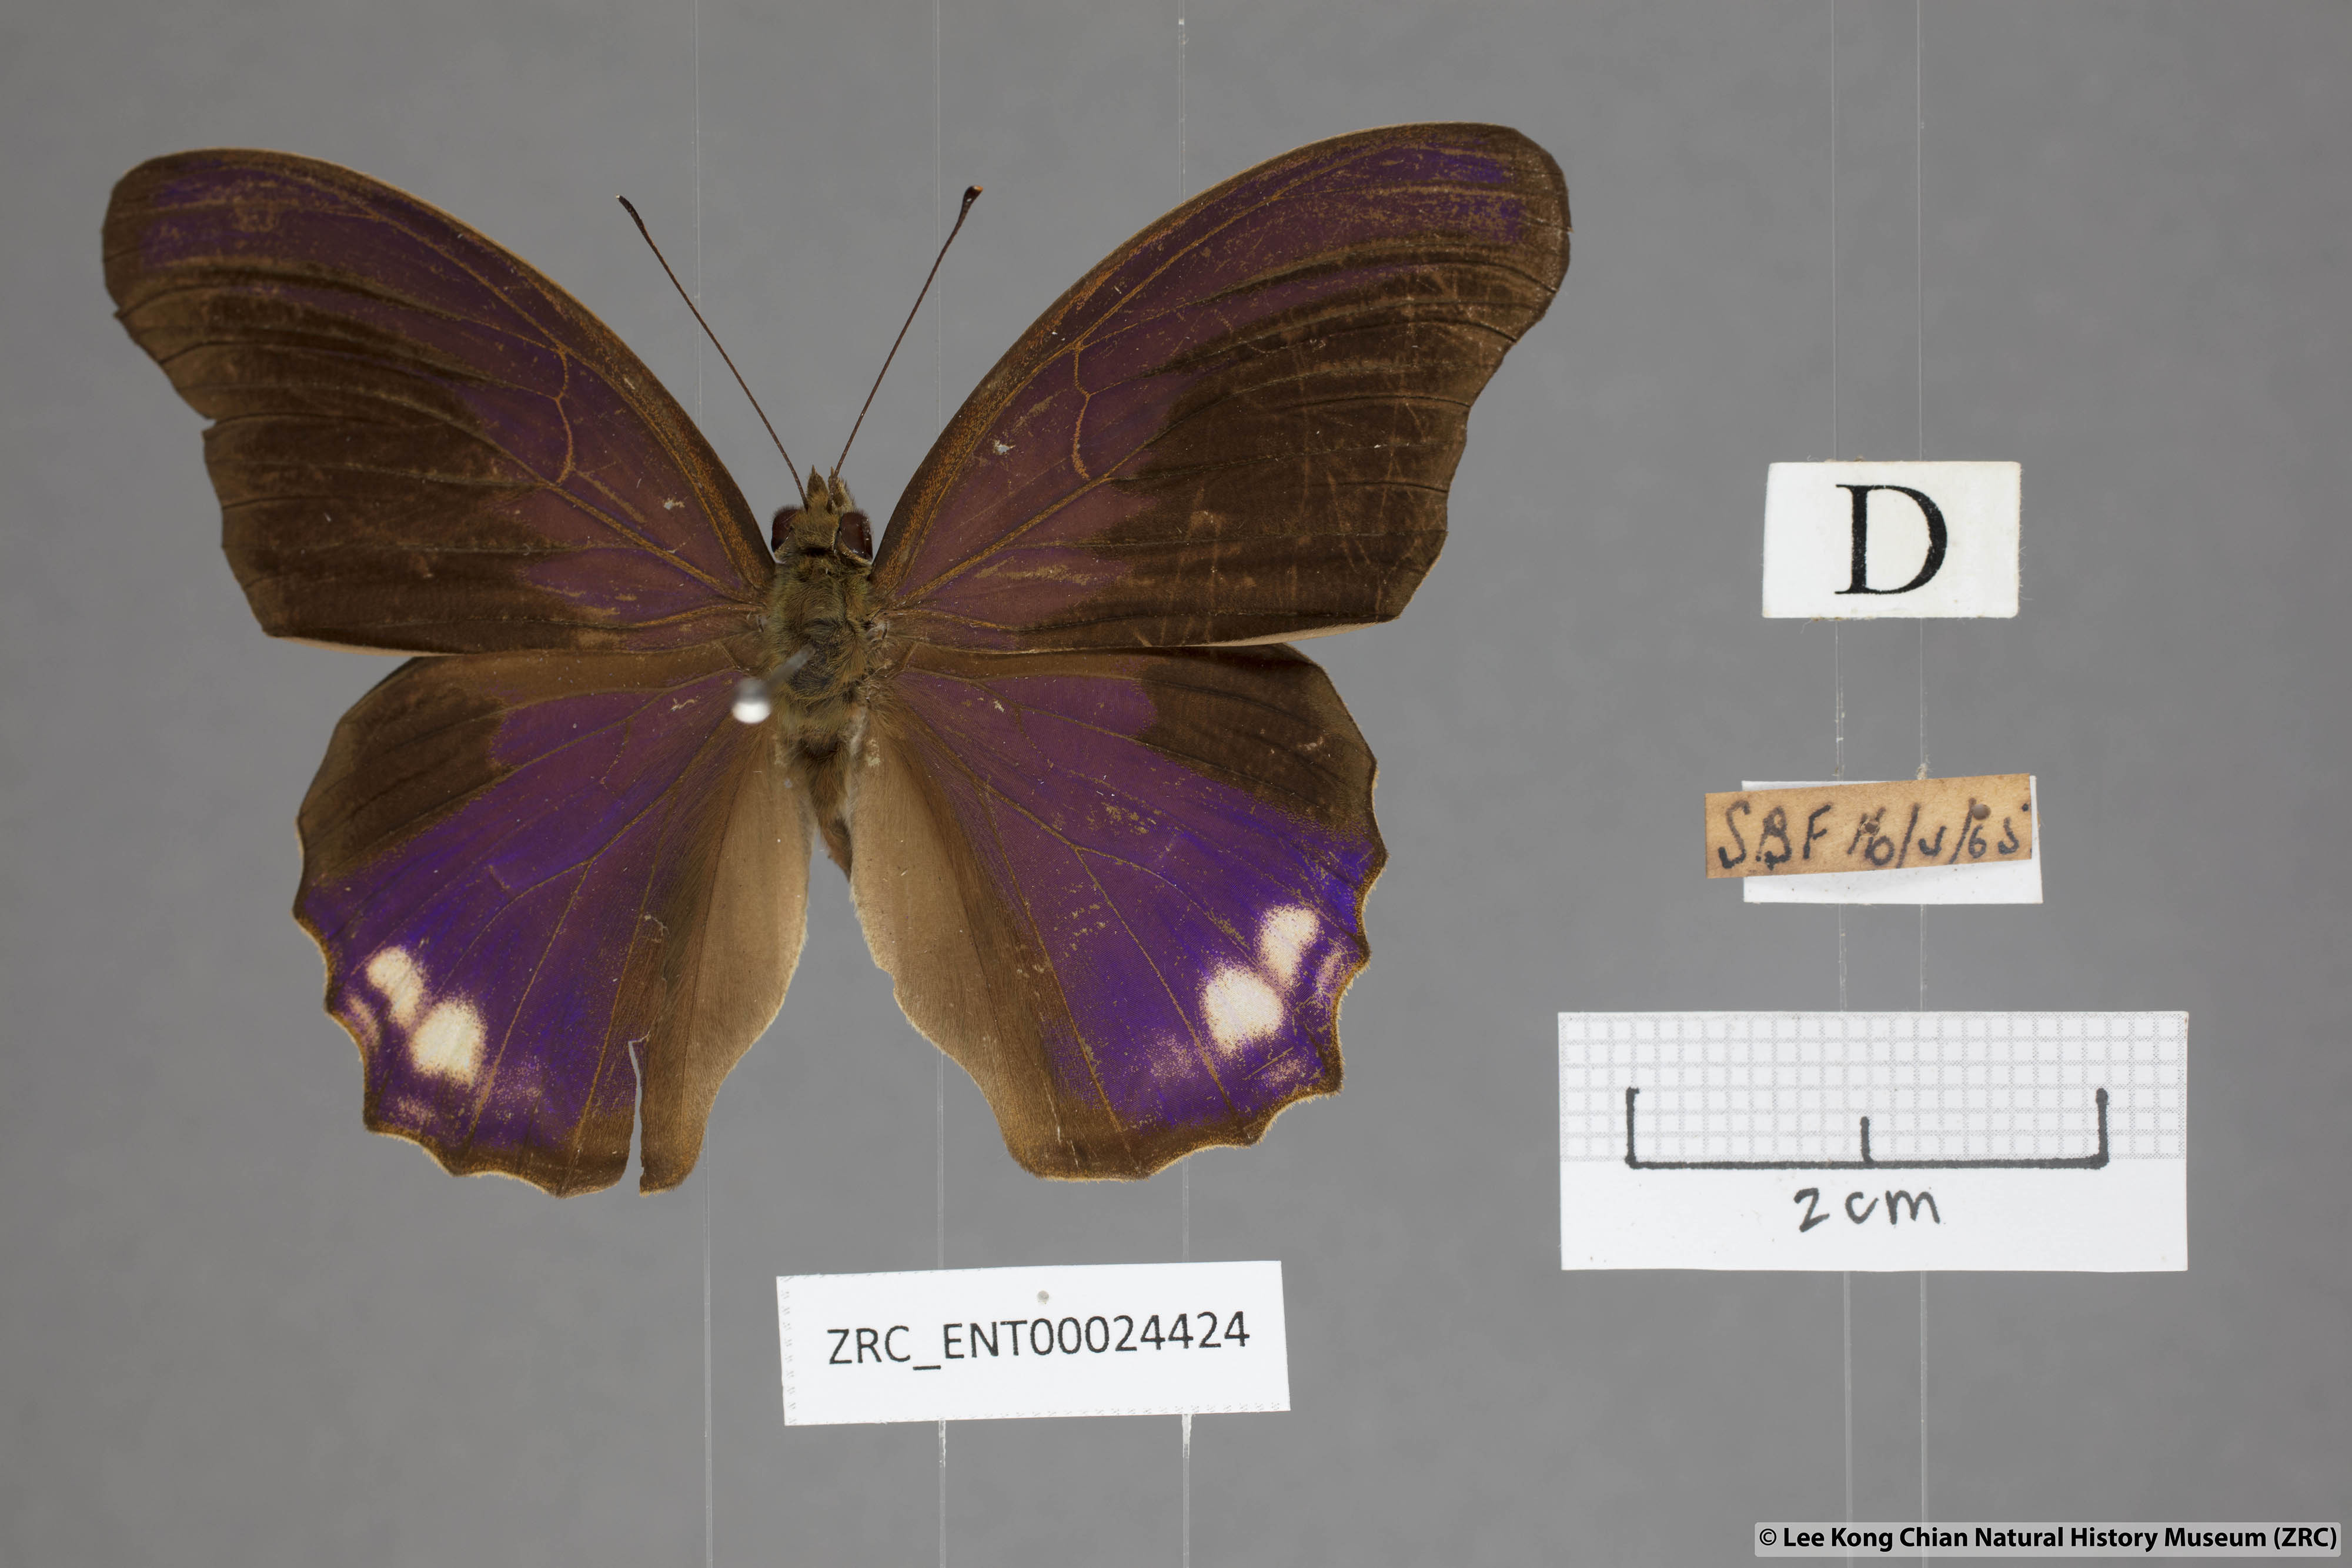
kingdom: Animalia
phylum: Arthropoda
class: Insecta
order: Lepidoptera
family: Nymphalidae
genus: Terinos
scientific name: Terinos atlita
